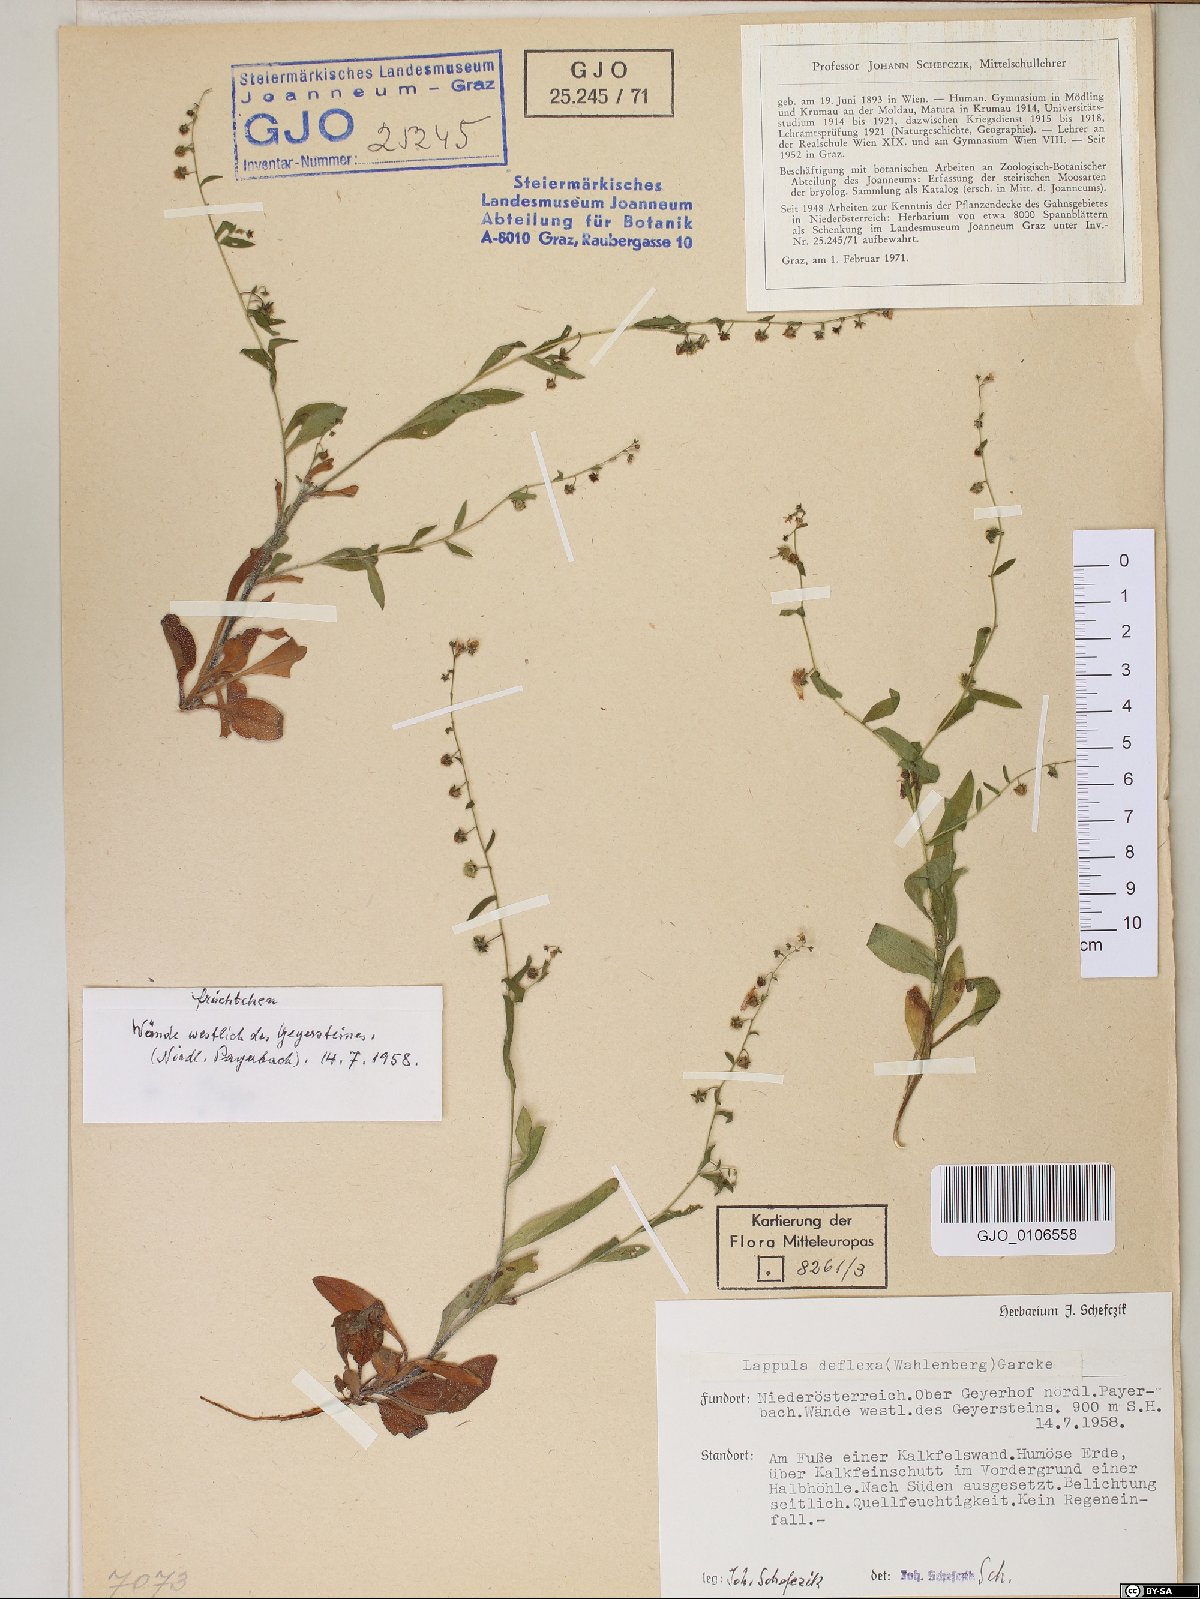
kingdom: Plantae
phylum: Tracheophyta
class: Magnoliopsida
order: Boraginales
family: Boraginaceae
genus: Hackelia
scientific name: Hackelia deflexa
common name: Nodding stickseed
